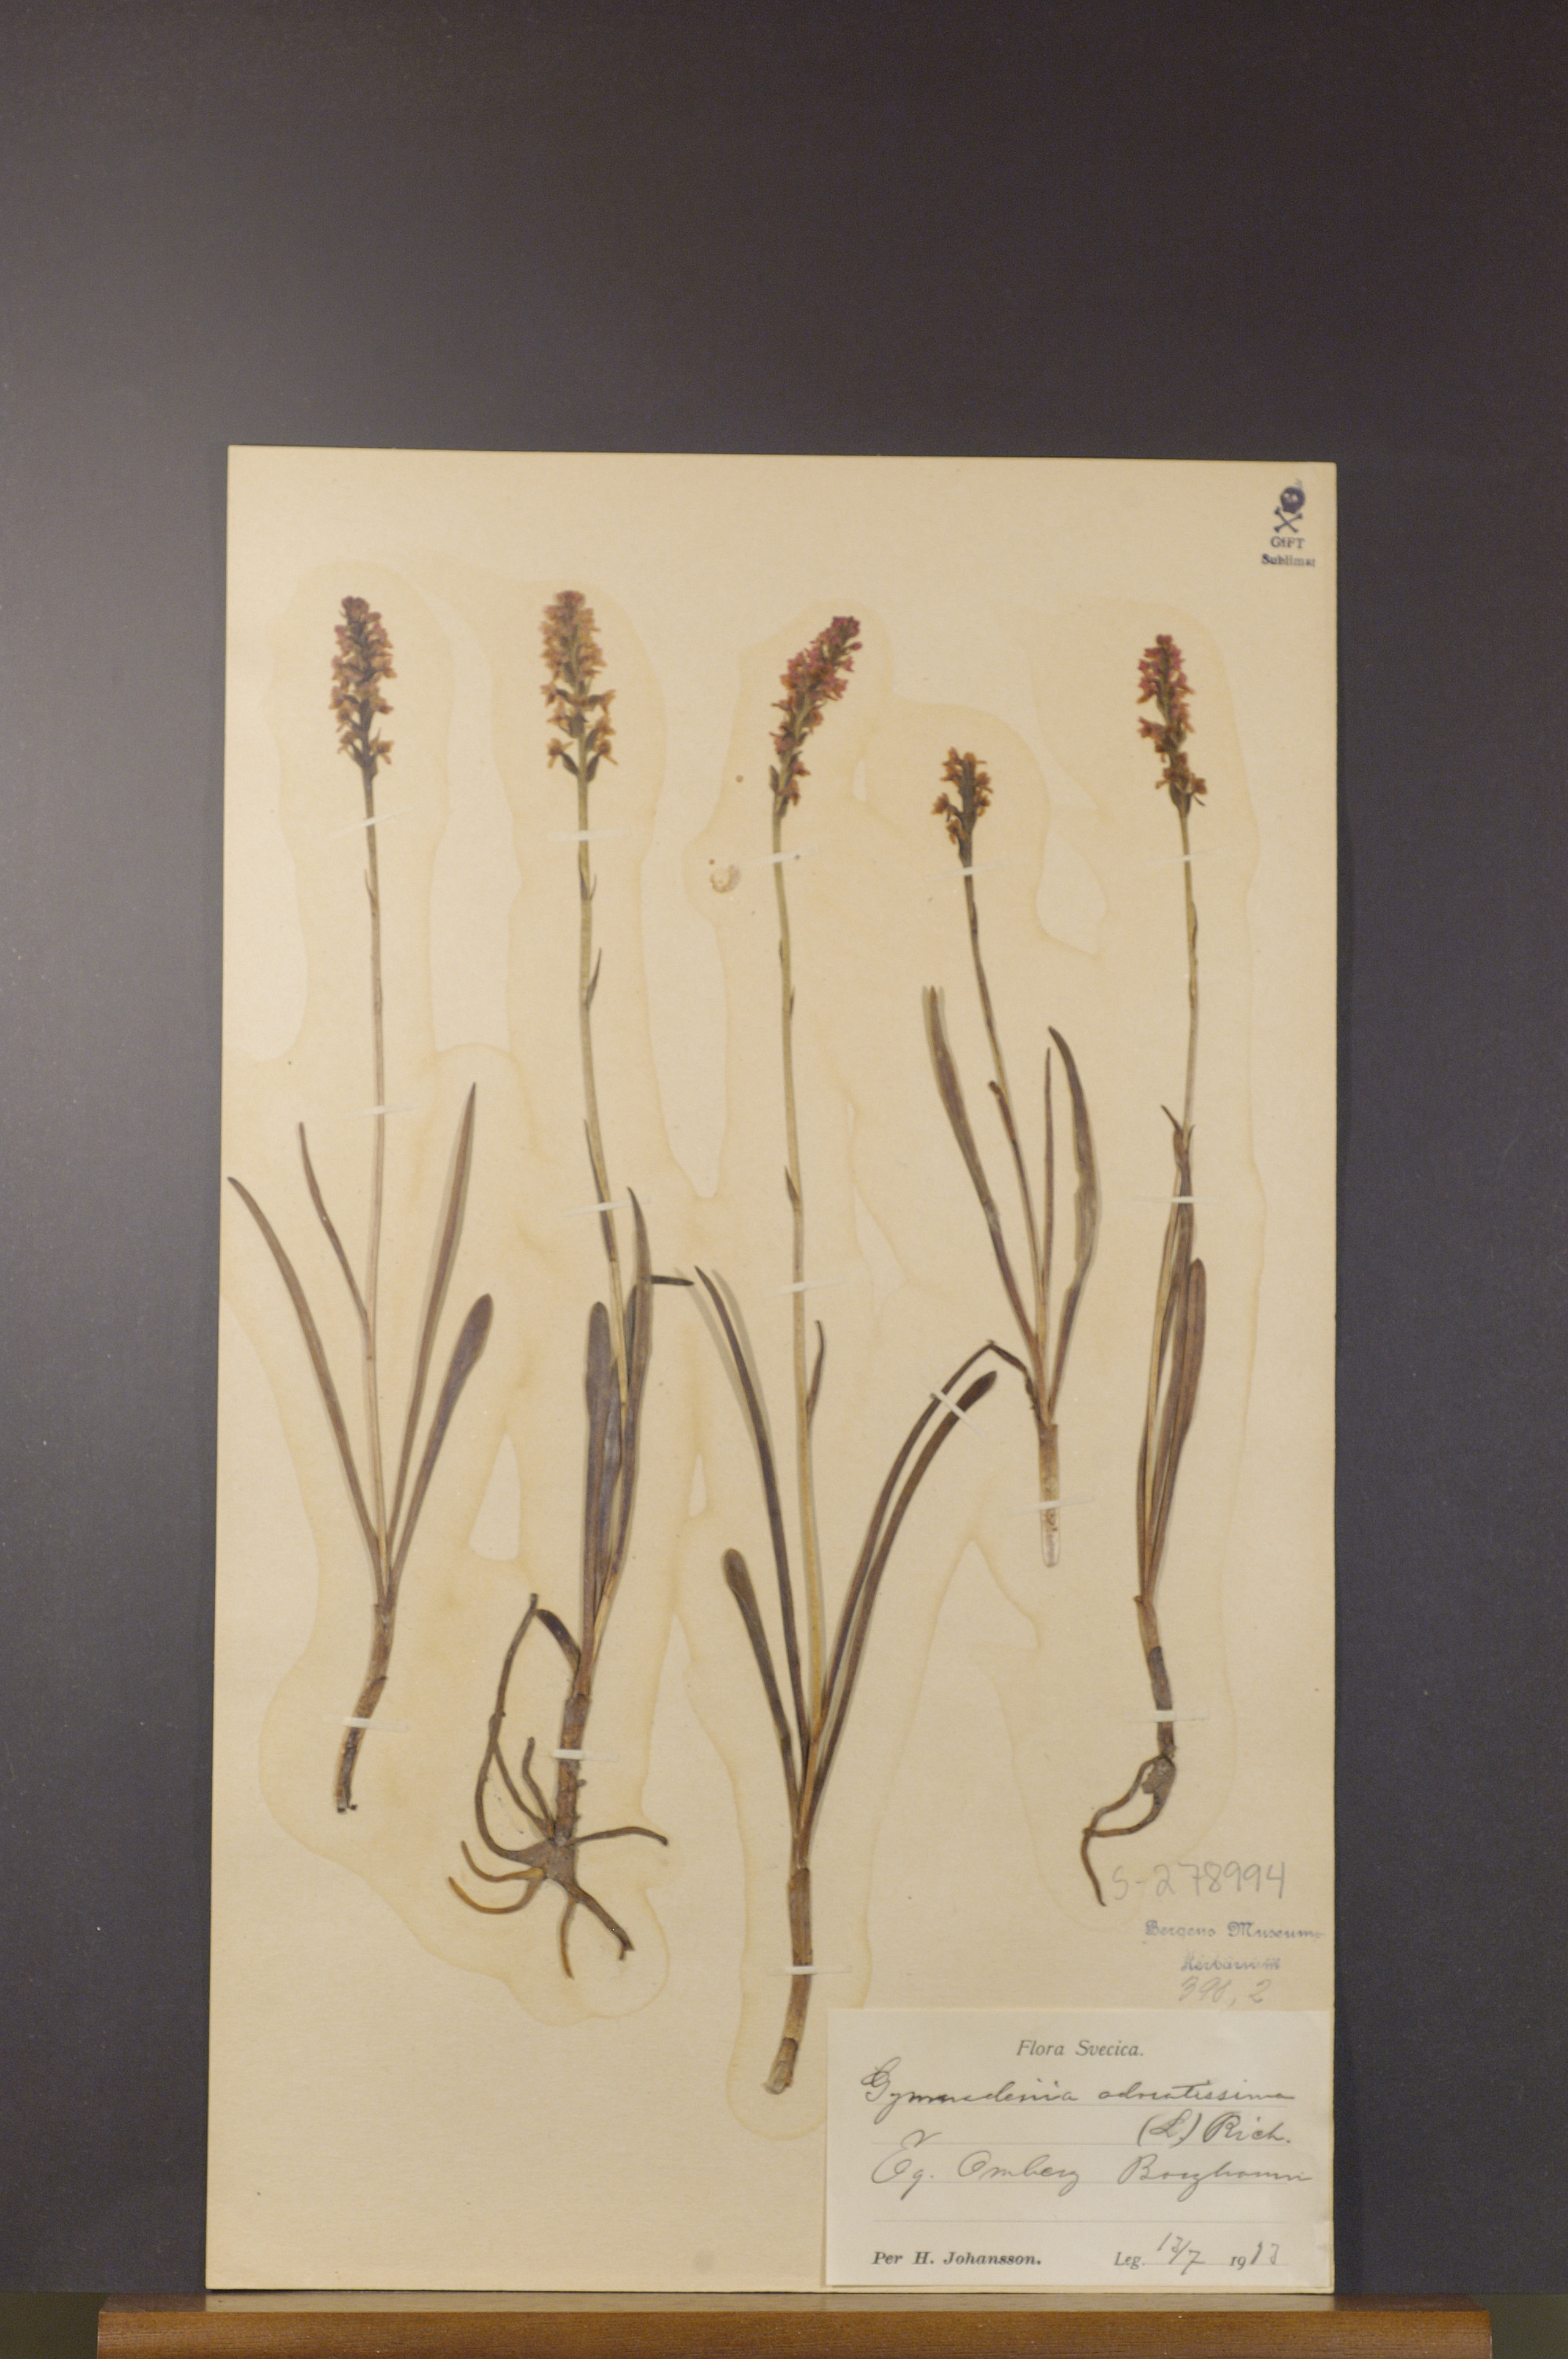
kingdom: Plantae
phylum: Tracheophyta
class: Liliopsida
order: Asparagales
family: Orchidaceae
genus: Gymnadenia
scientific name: Gymnadenia odoratissima
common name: Scented gymnadenia
